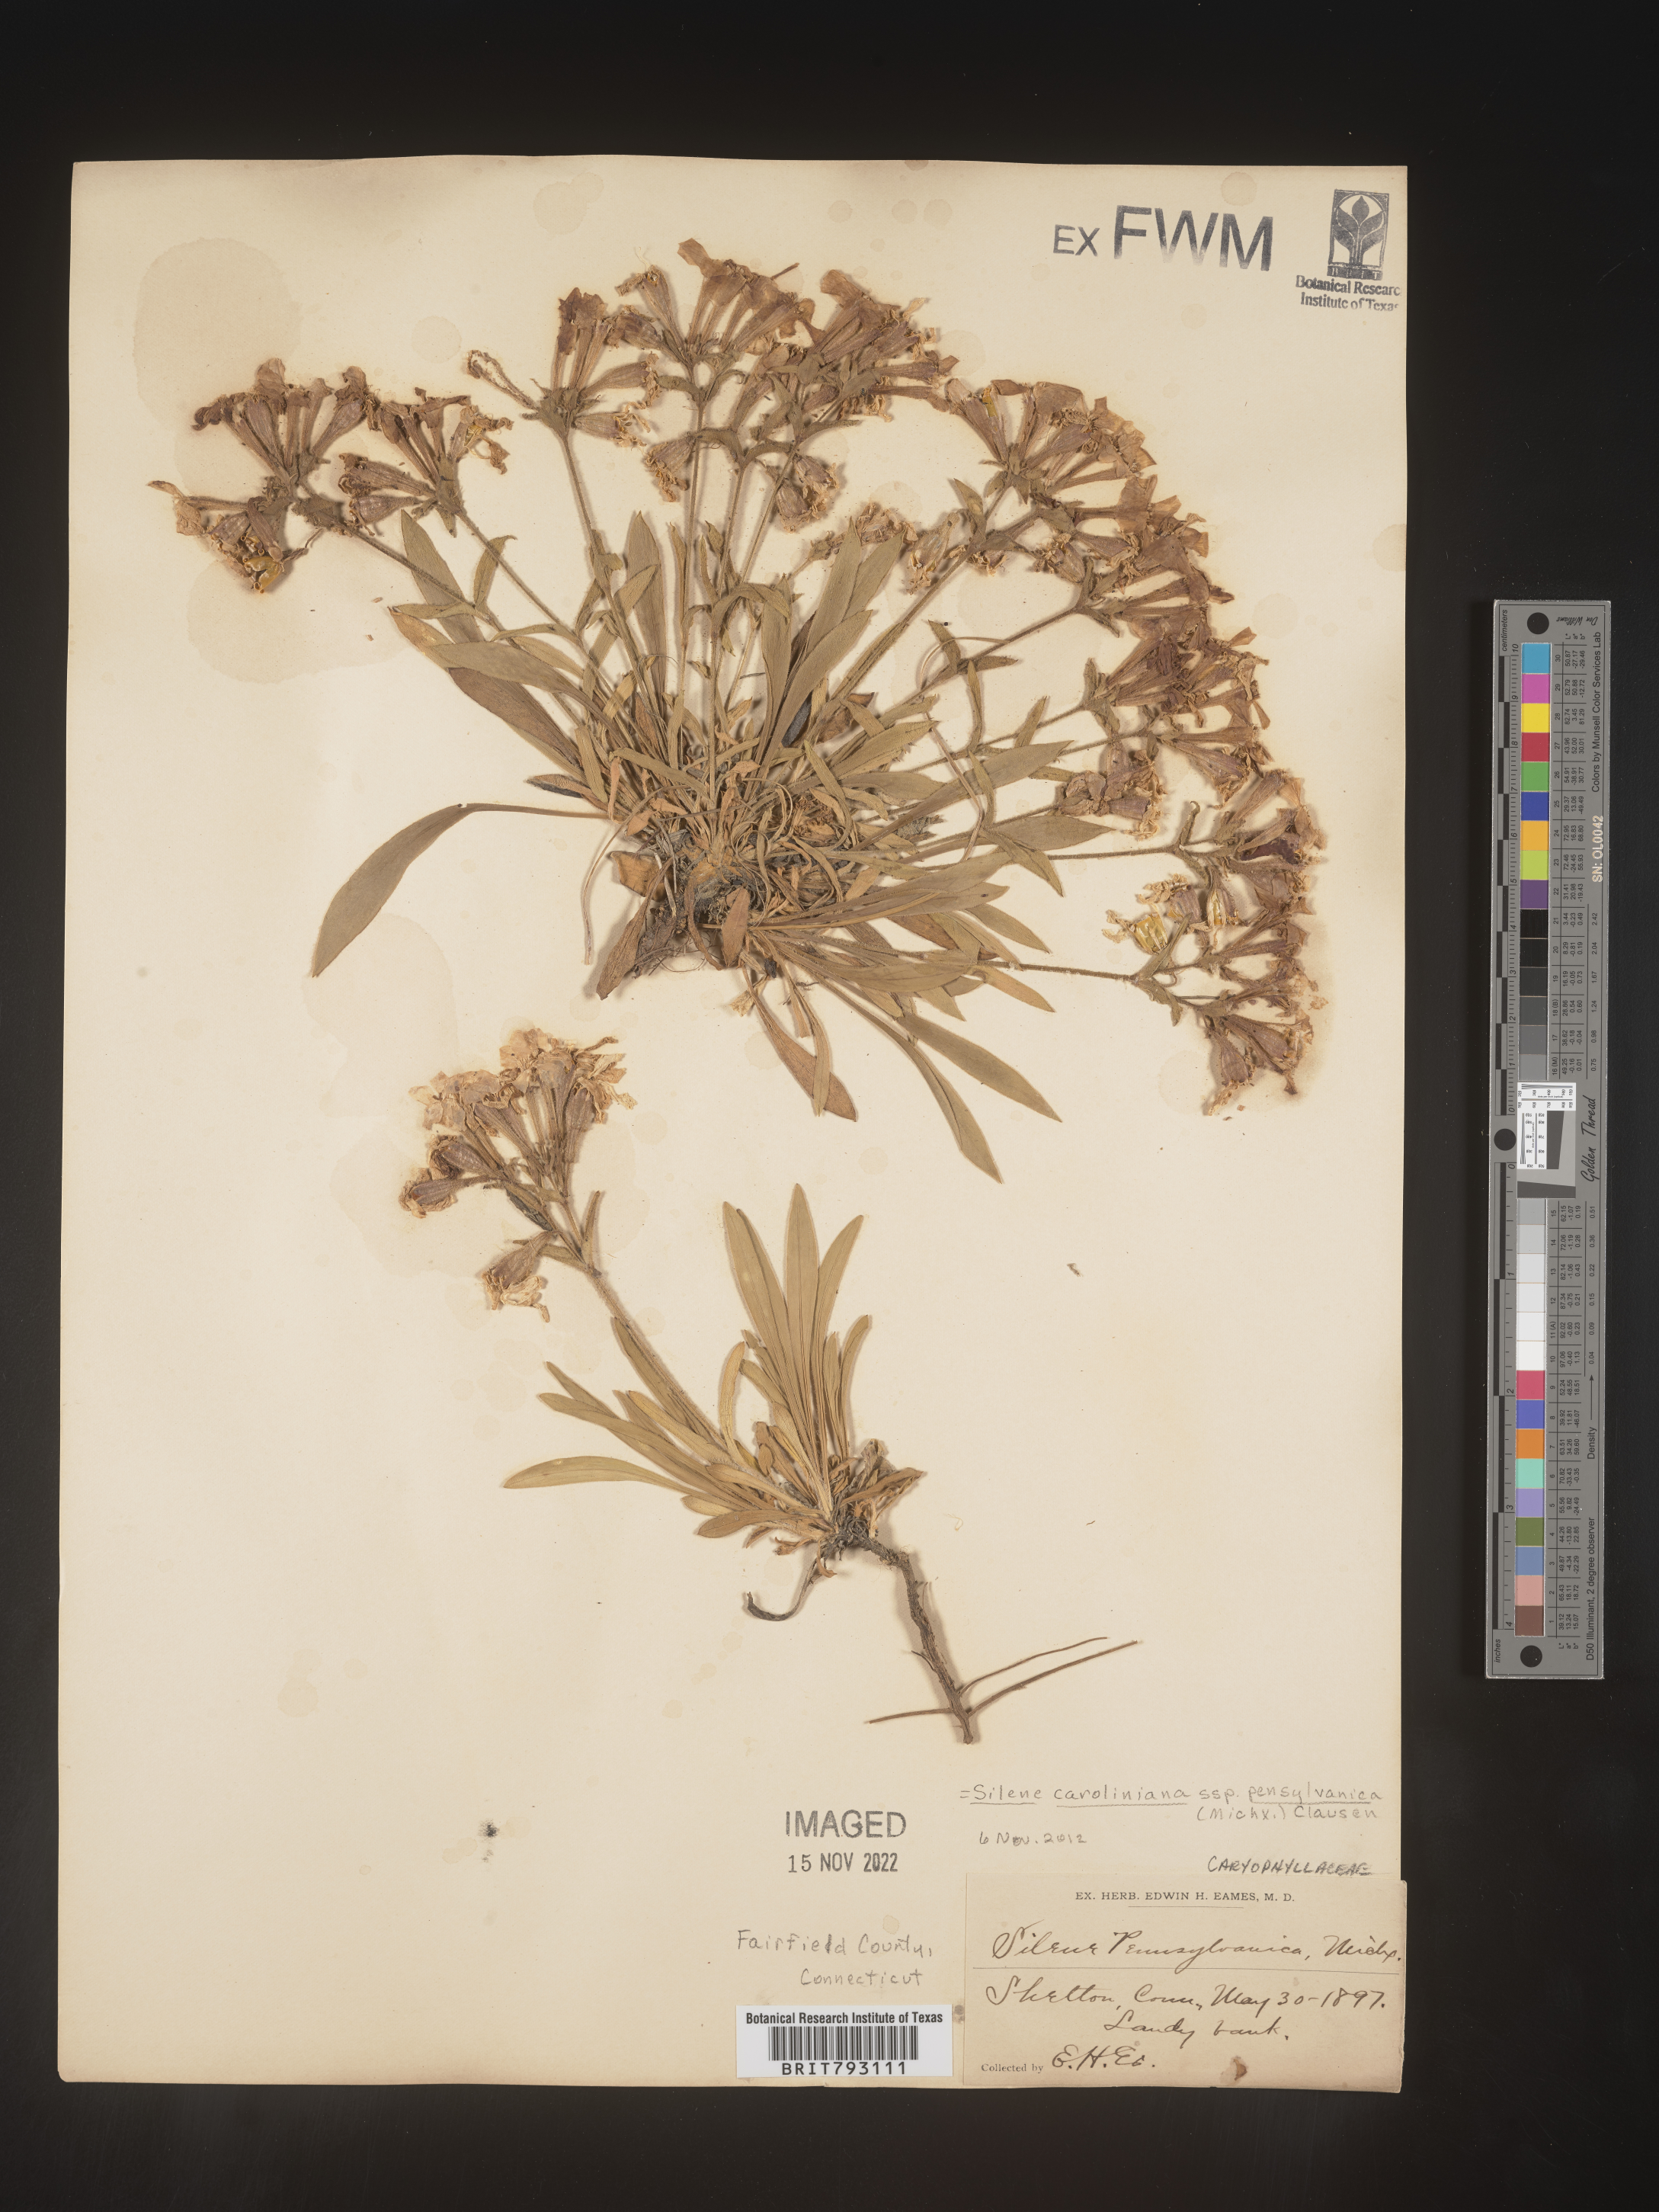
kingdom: Plantae
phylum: Tracheophyta
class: Magnoliopsida
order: Caryophyllales
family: Caryophyllaceae
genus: Silene
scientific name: Silene caroliniana
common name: Sticky catchfly
